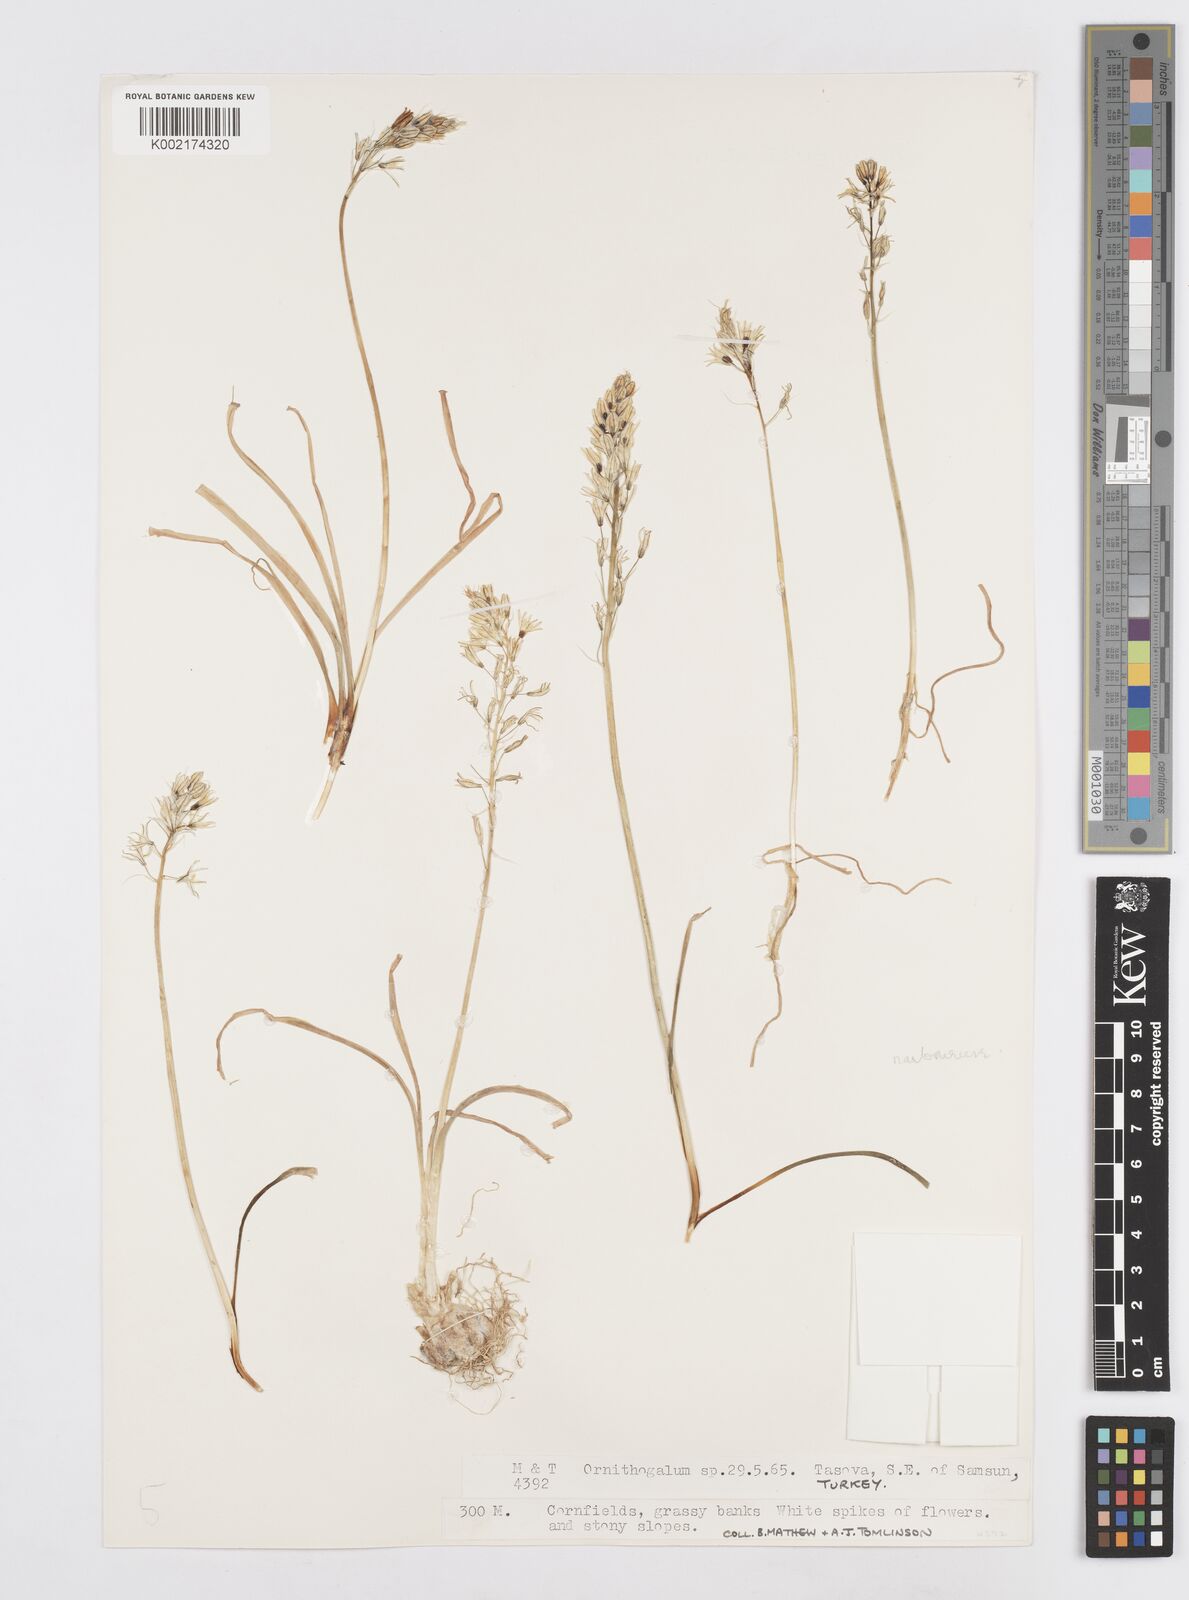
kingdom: Plantae
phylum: Tracheophyta
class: Liliopsida
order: Asparagales
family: Asparagaceae
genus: Ornithogalum
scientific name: Ornithogalum narbonense
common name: Bath-asparagus
